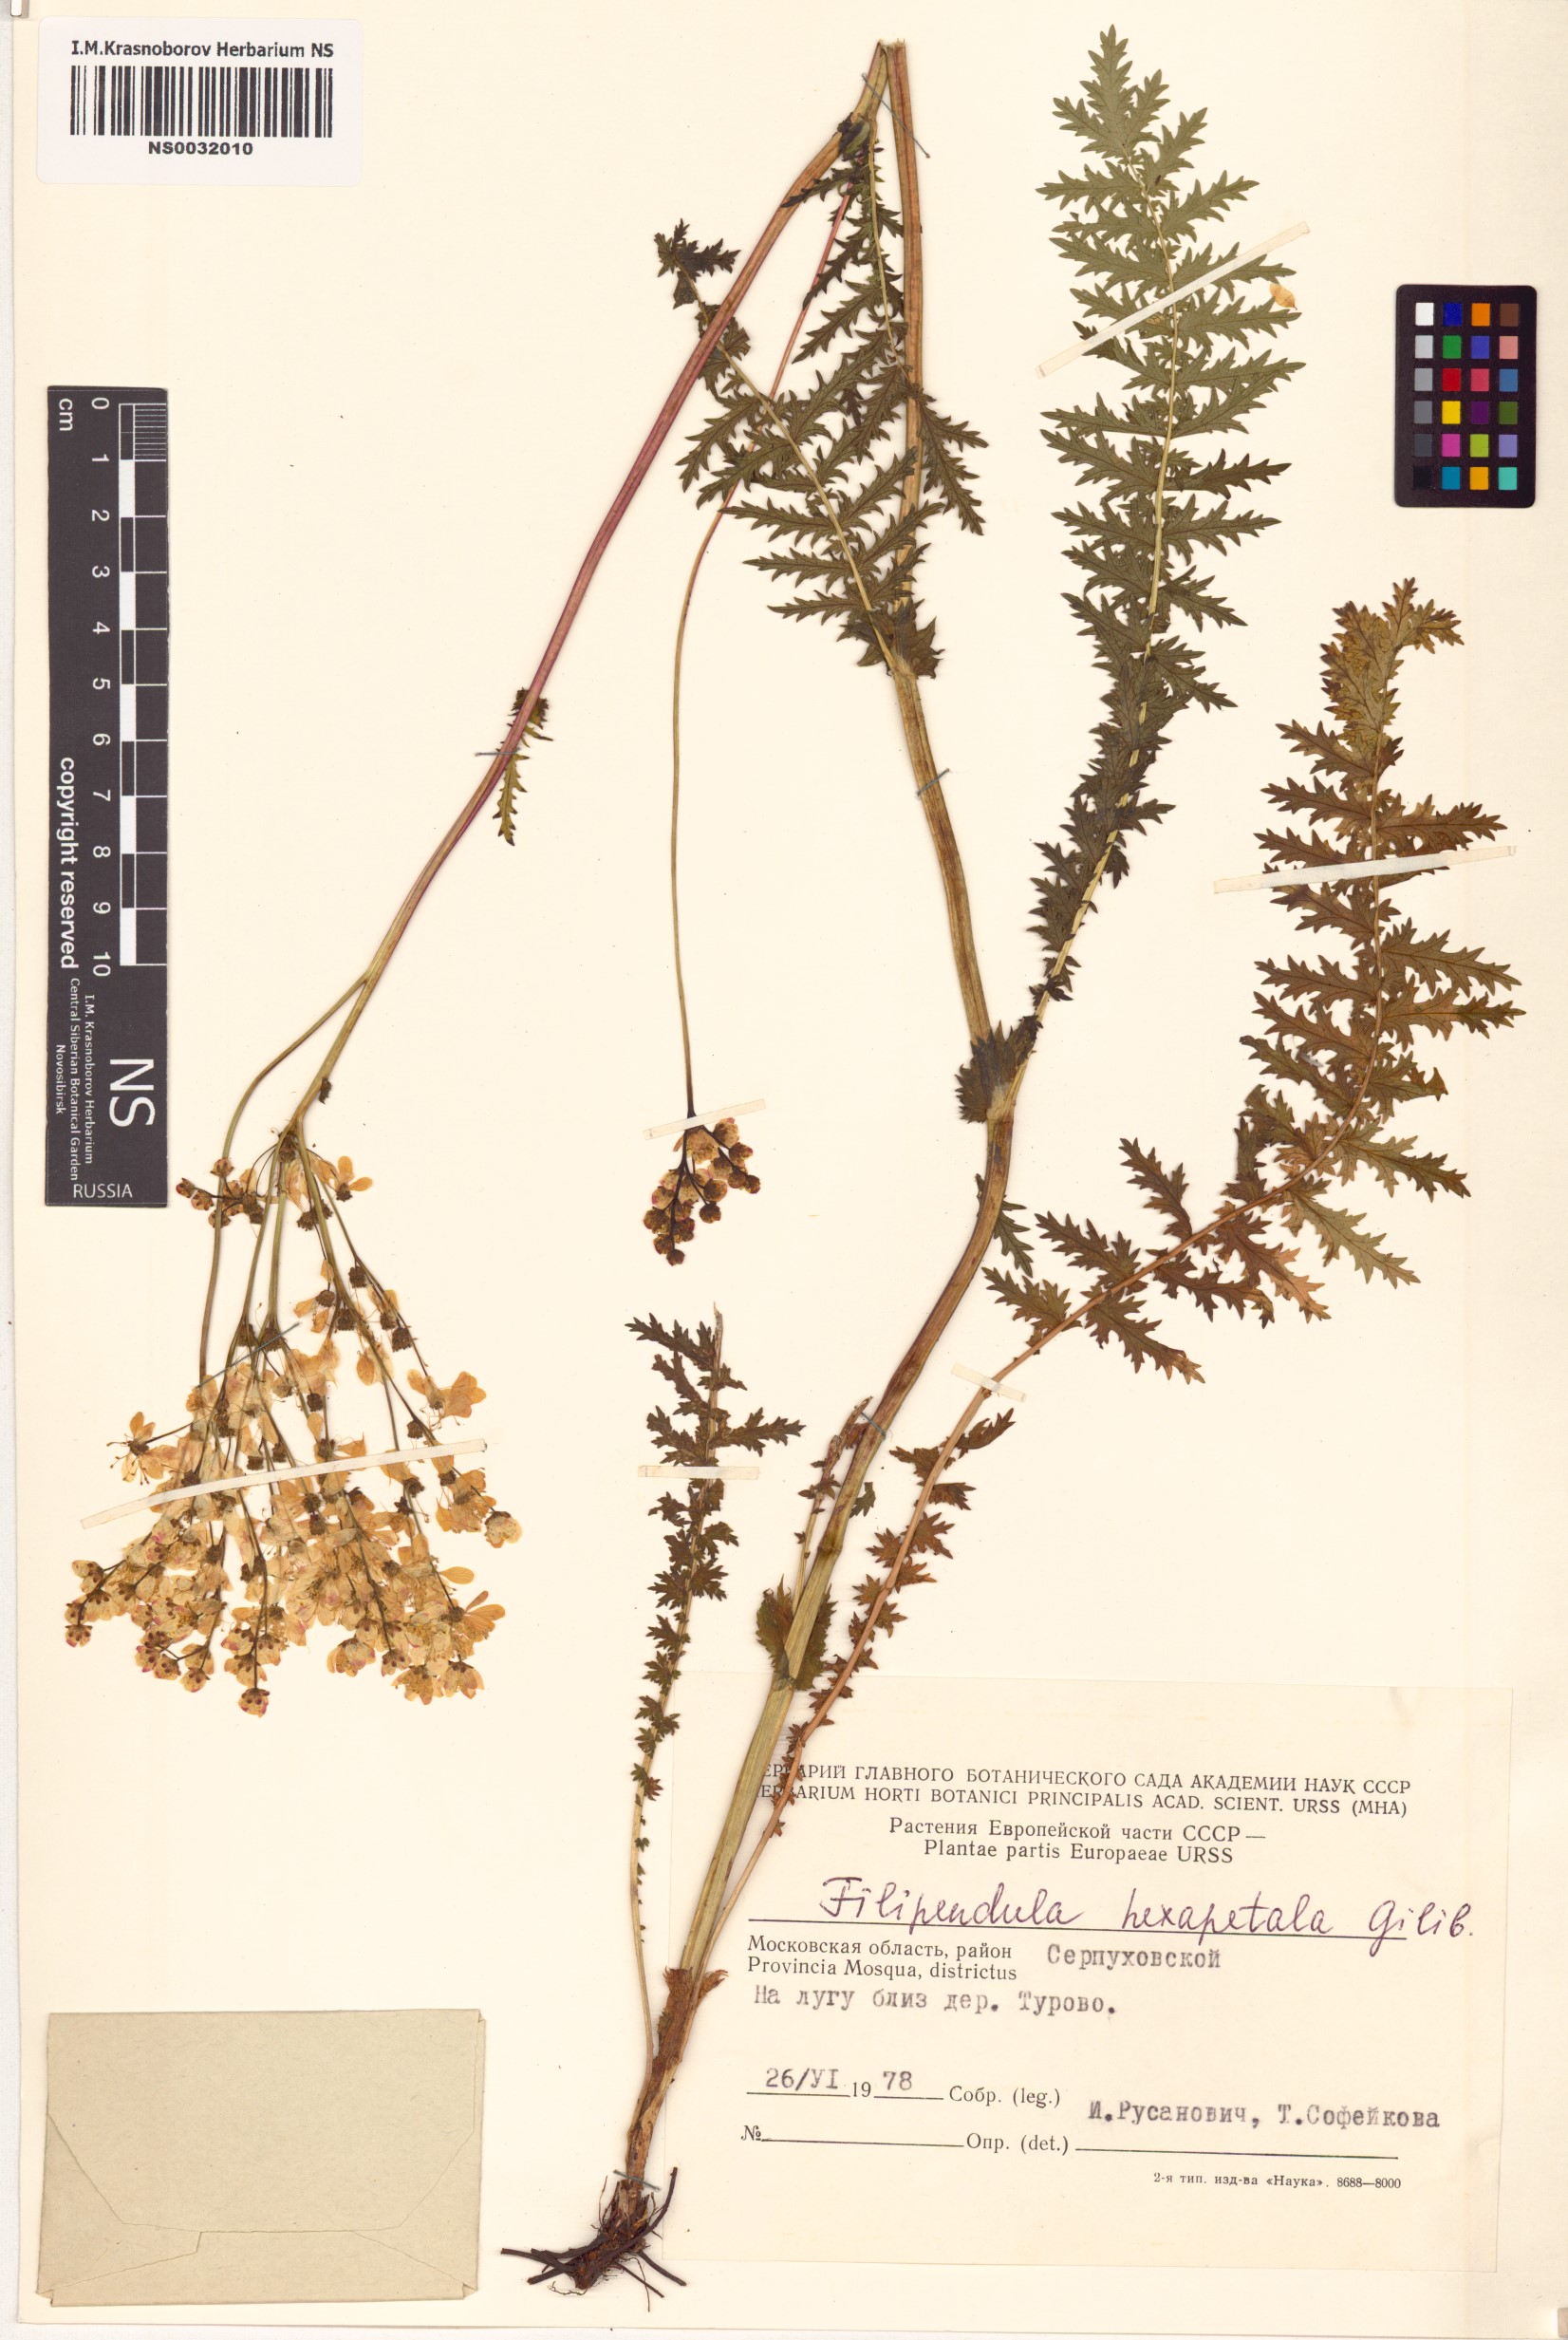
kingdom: Plantae
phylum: Tracheophyta
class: Magnoliopsida
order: Rosales
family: Rosaceae
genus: Filipendula
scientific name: Filipendula vulgaris
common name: Dropwort
